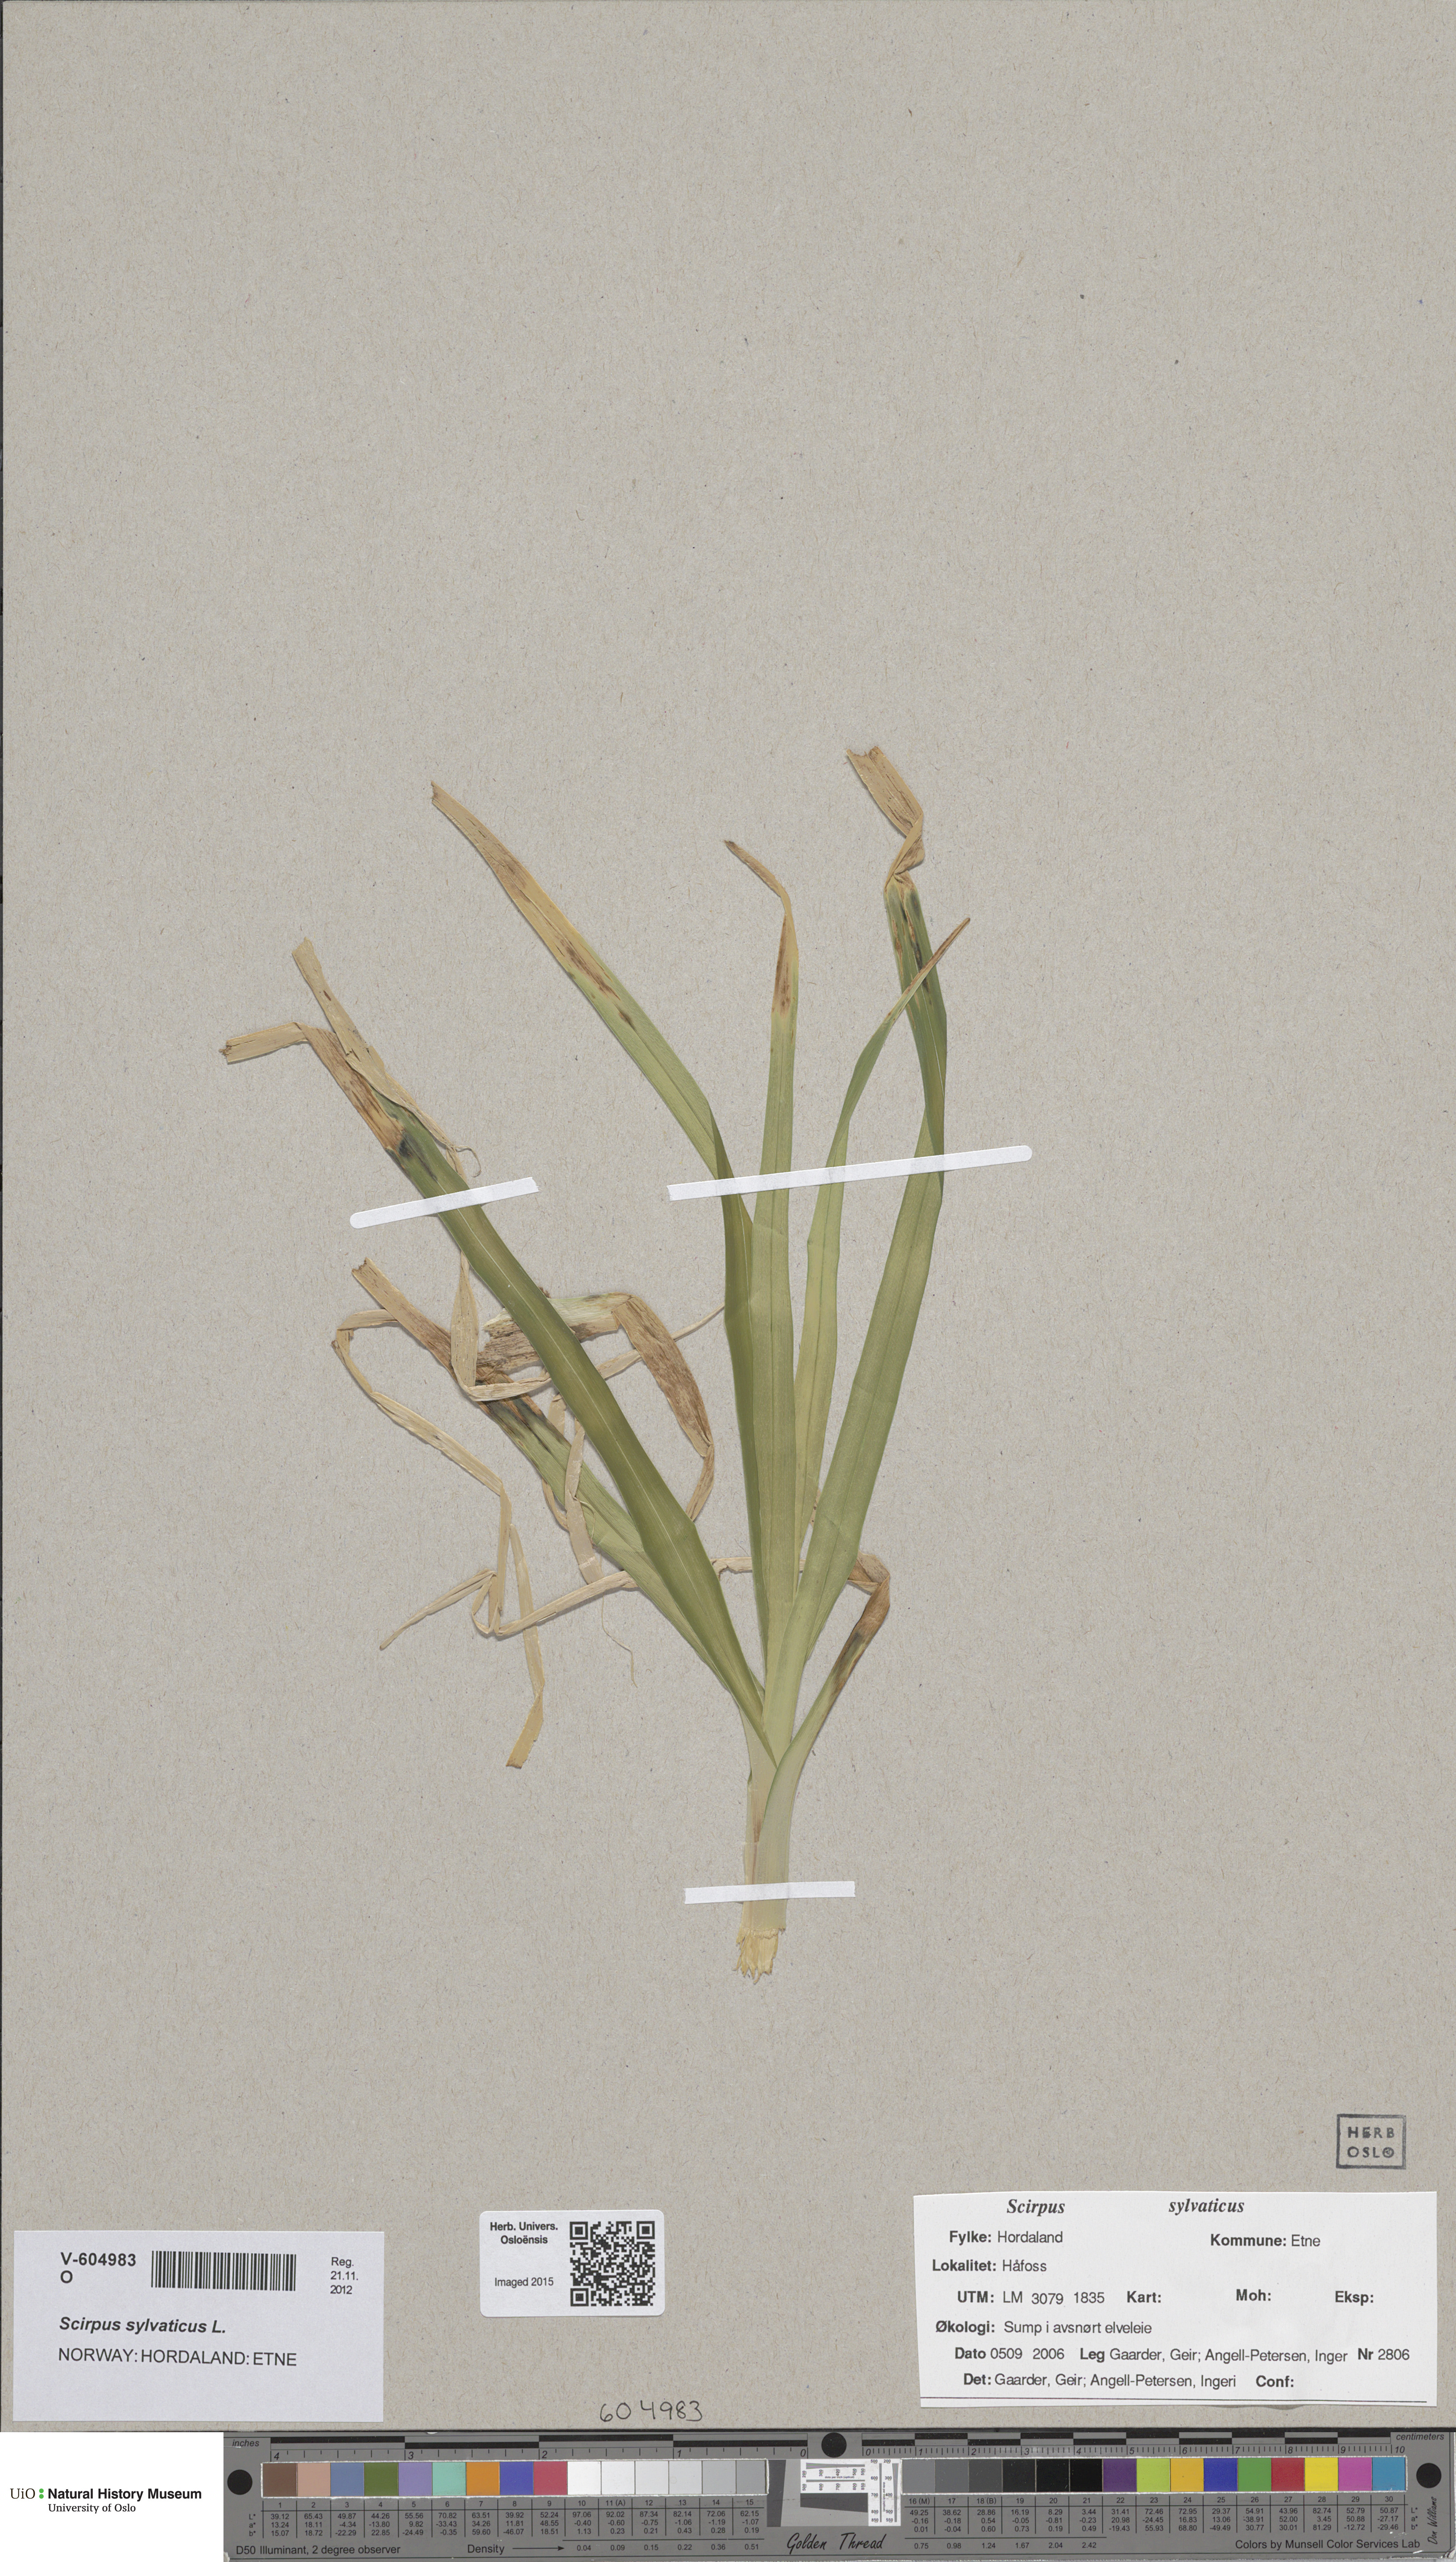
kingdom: Plantae
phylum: Tracheophyta
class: Liliopsida
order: Poales
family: Cyperaceae
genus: Scirpus
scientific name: Scirpus sylvaticus
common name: Wood club-rush
